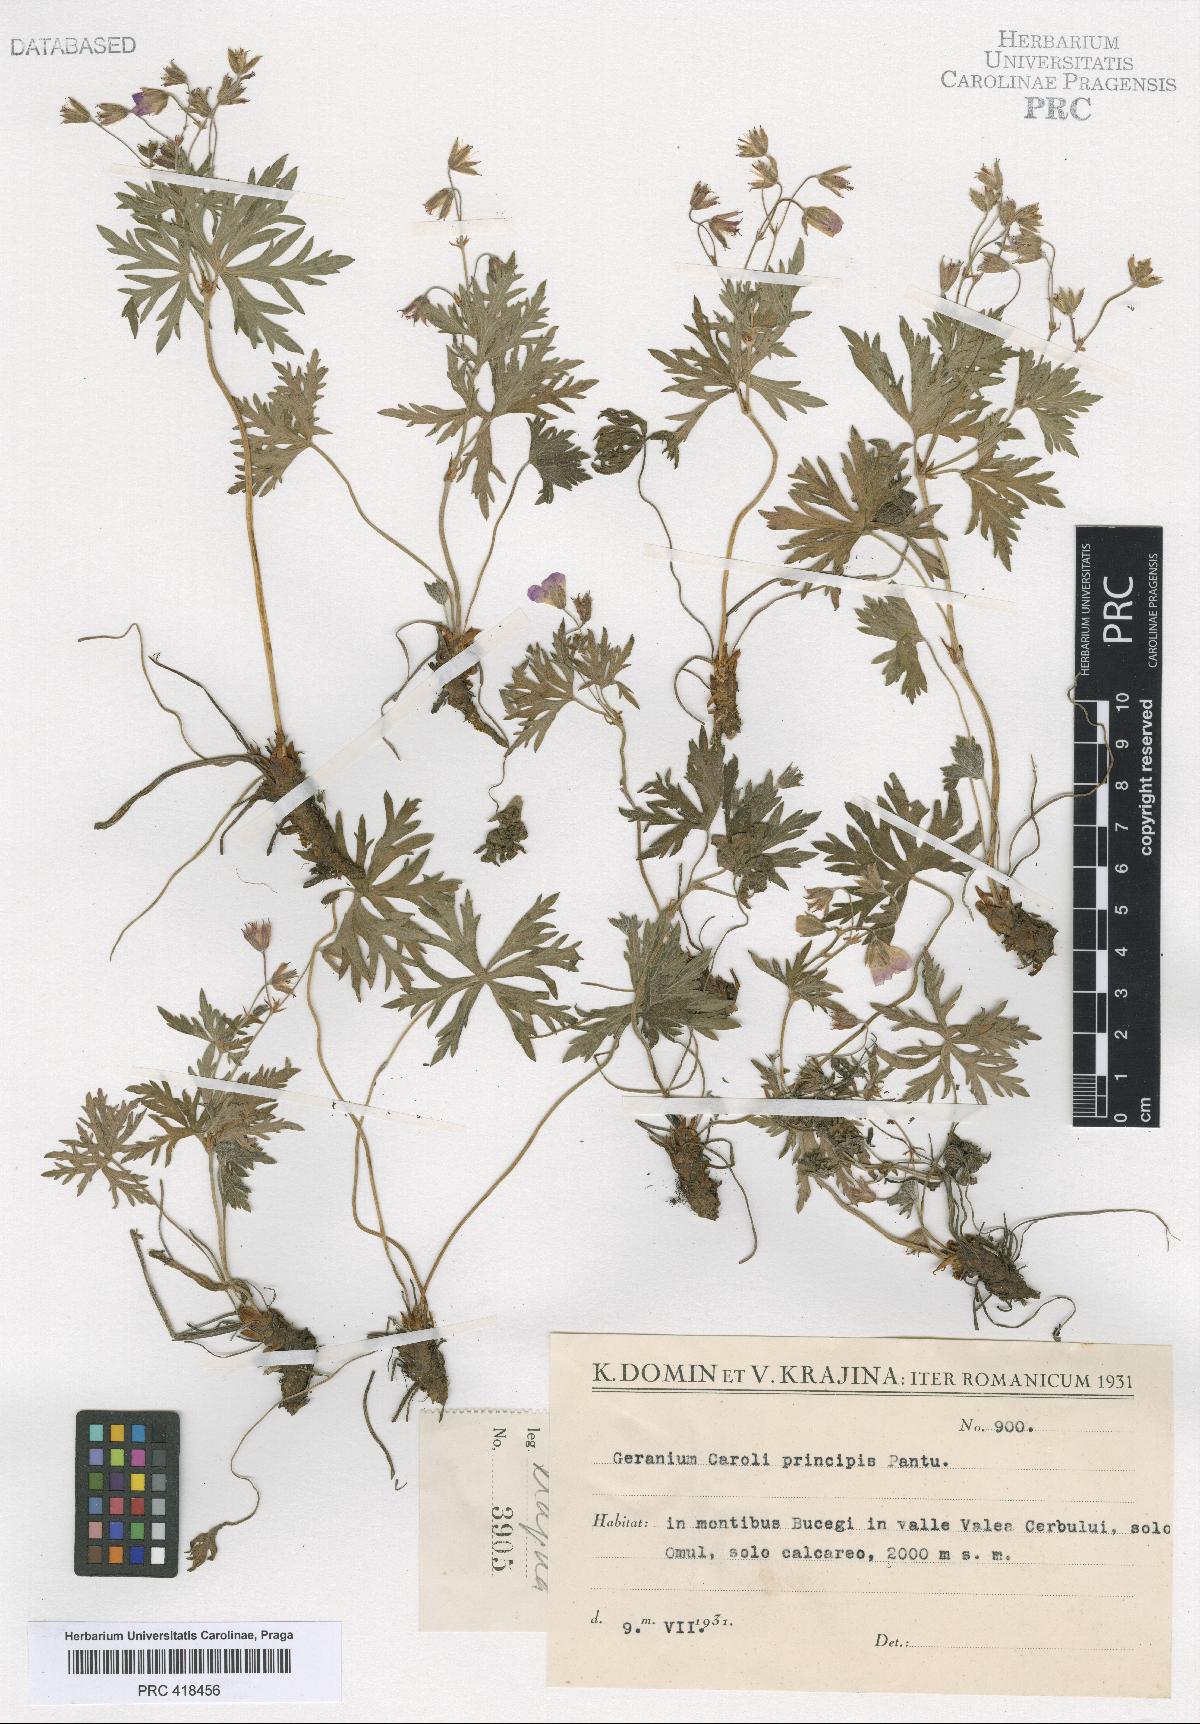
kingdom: Plantae
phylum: Tracheophyta
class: Magnoliopsida
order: Geraniales
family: Geraniaceae
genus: Geranium
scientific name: Geranium caeruleatum
